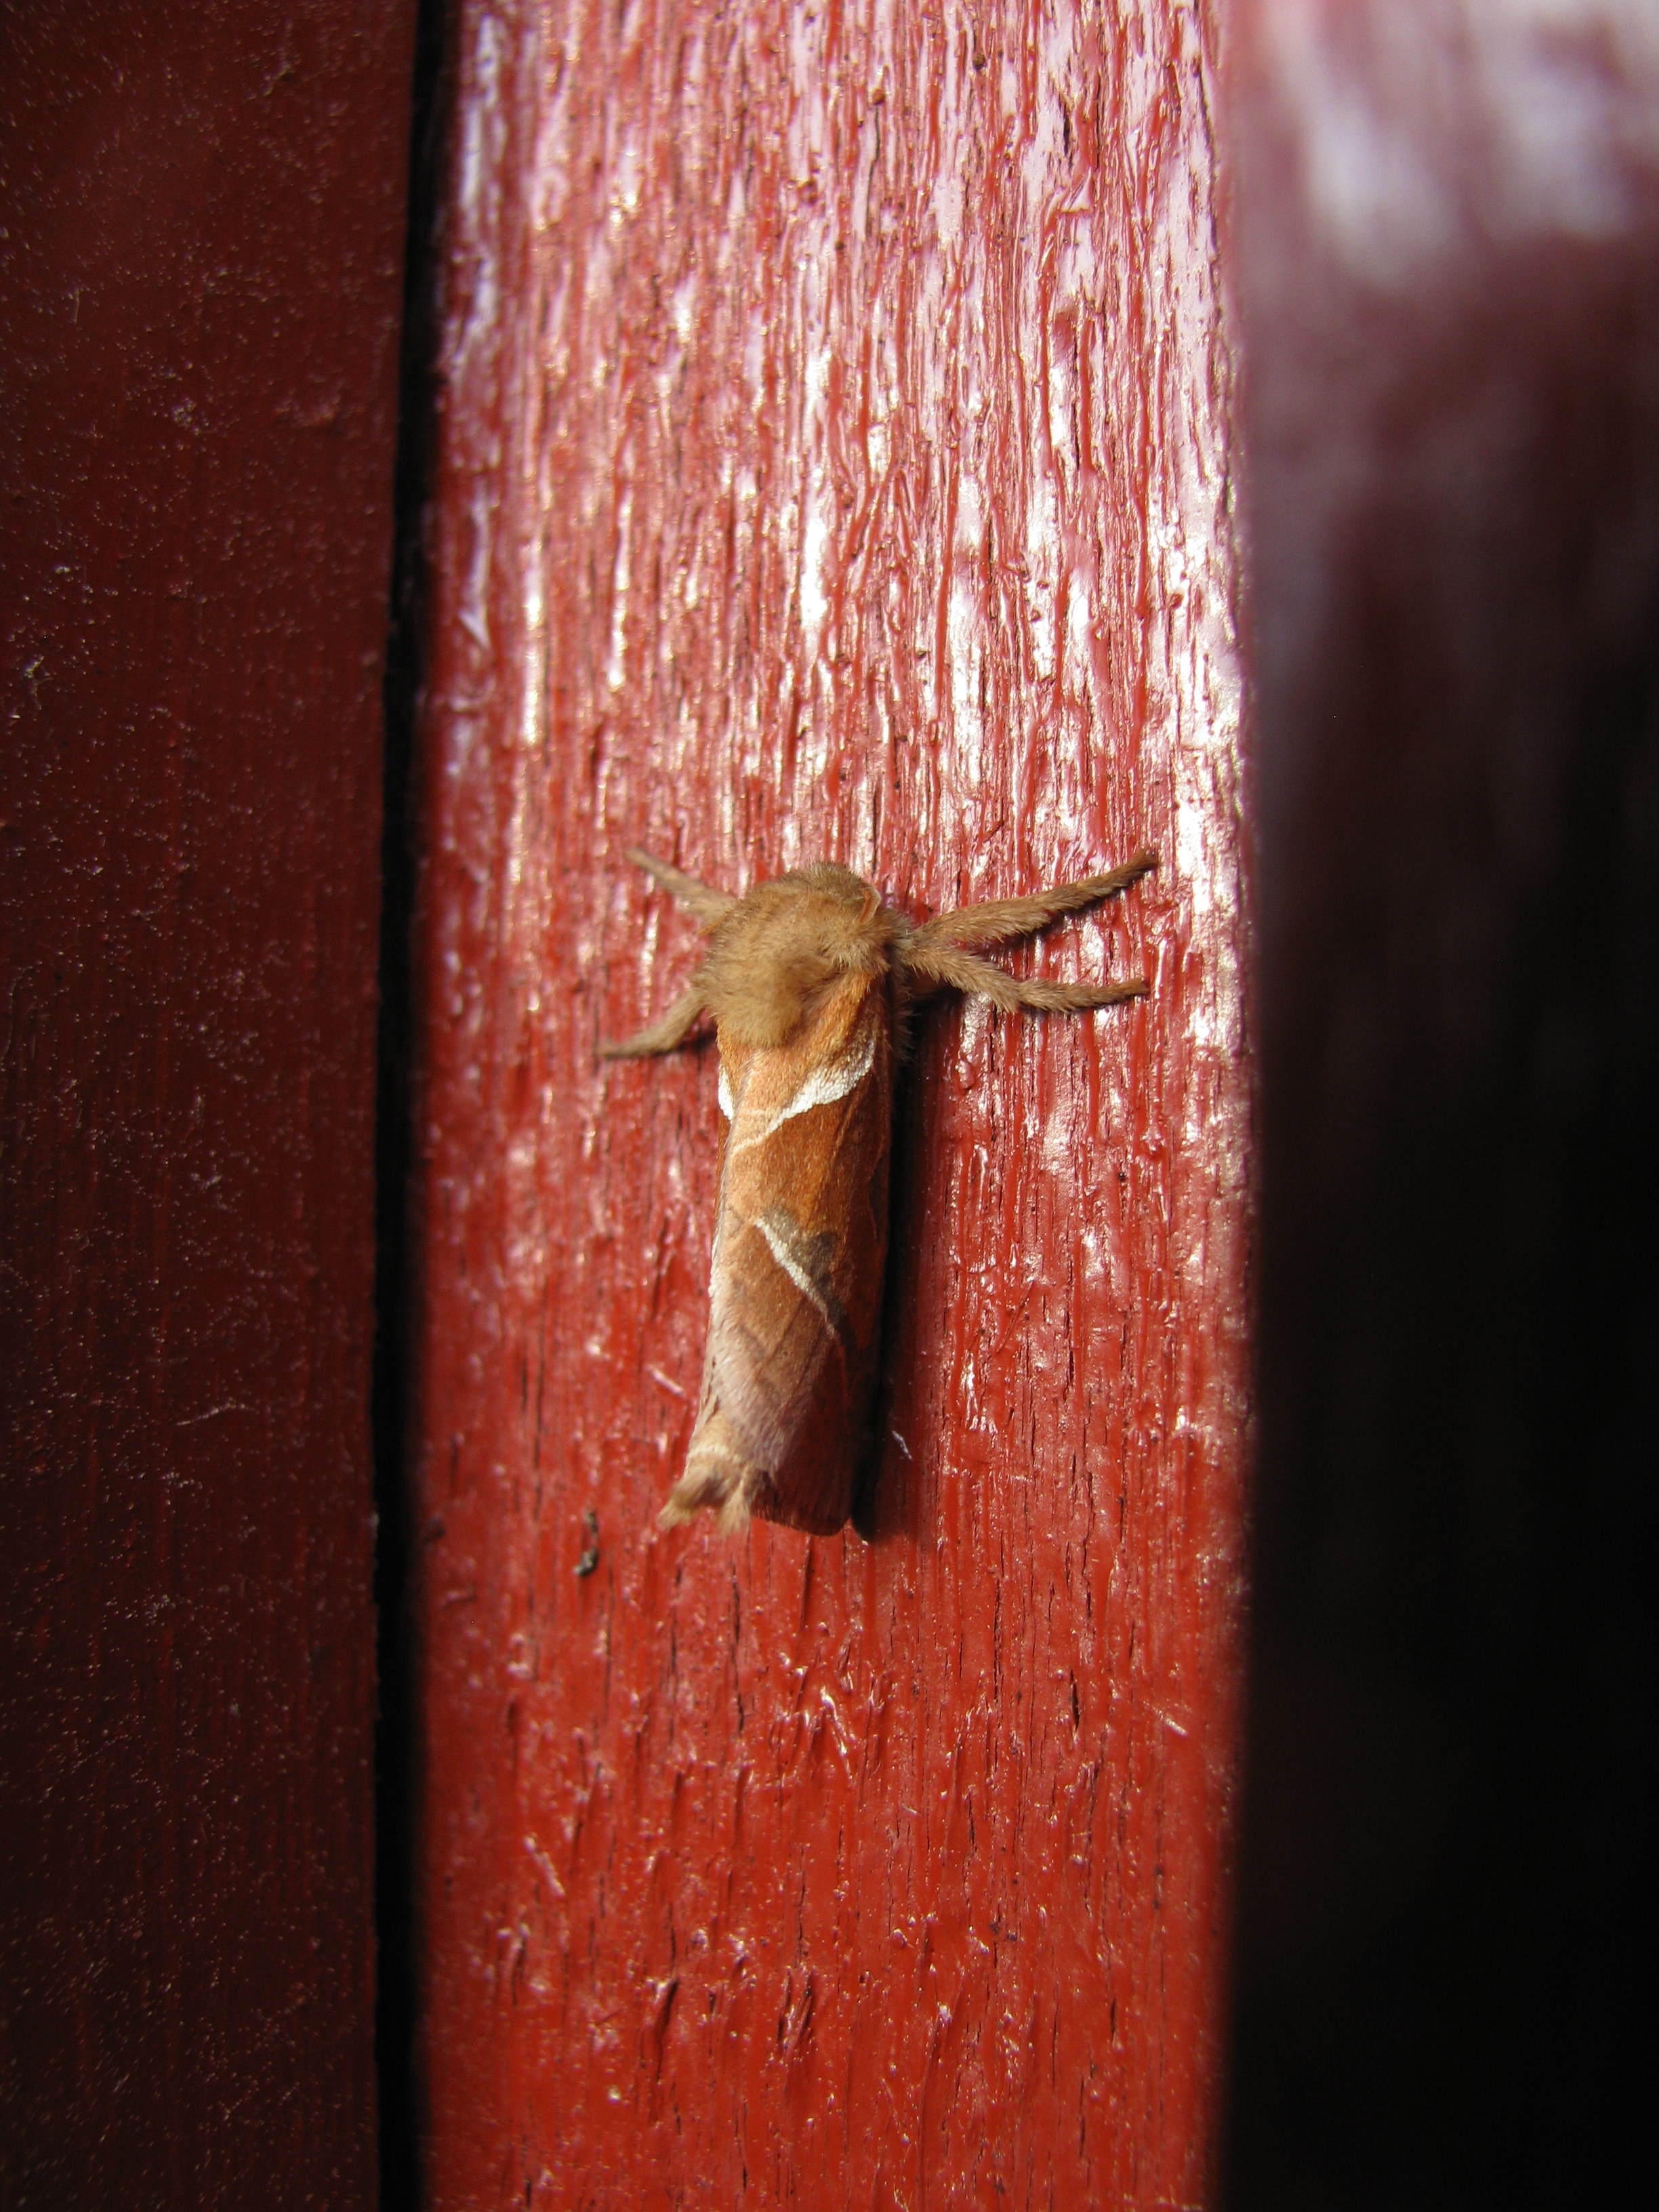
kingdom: Animalia
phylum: Arthropoda
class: Insecta
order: Lepidoptera
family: Hepialidae
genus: Triodia
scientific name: Triodia sylvina
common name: Orange swift
